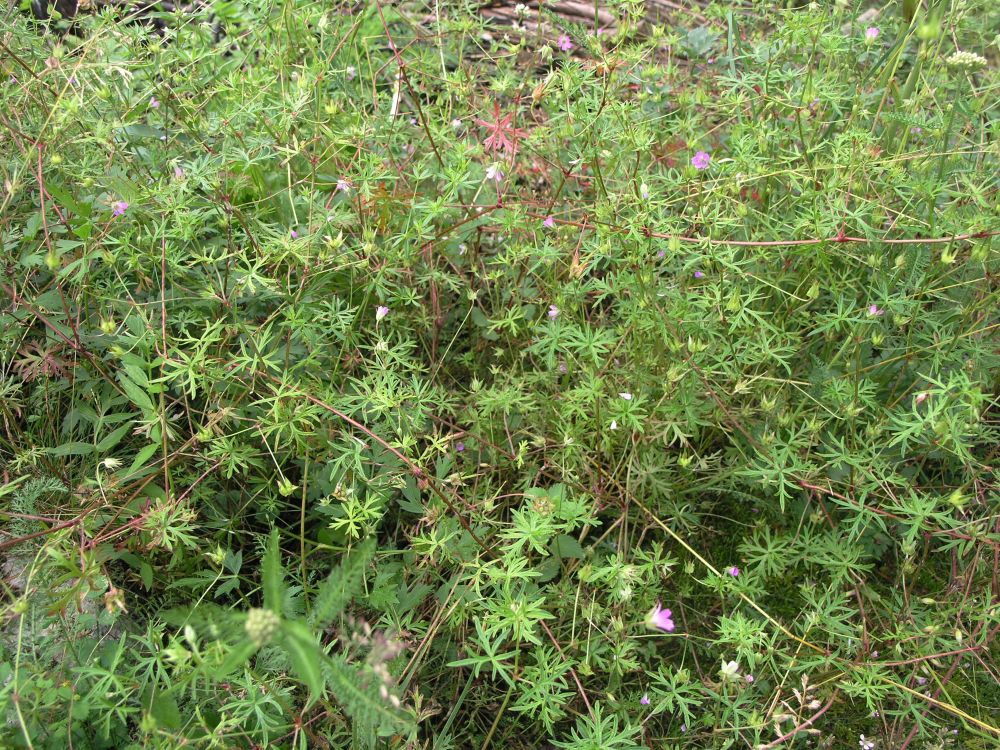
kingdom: Plantae
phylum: Tracheophyta
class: Magnoliopsida
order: Geraniales
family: Geraniaceae
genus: Geranium
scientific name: Geranium columbinum
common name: Long-stalked crane's-bill
